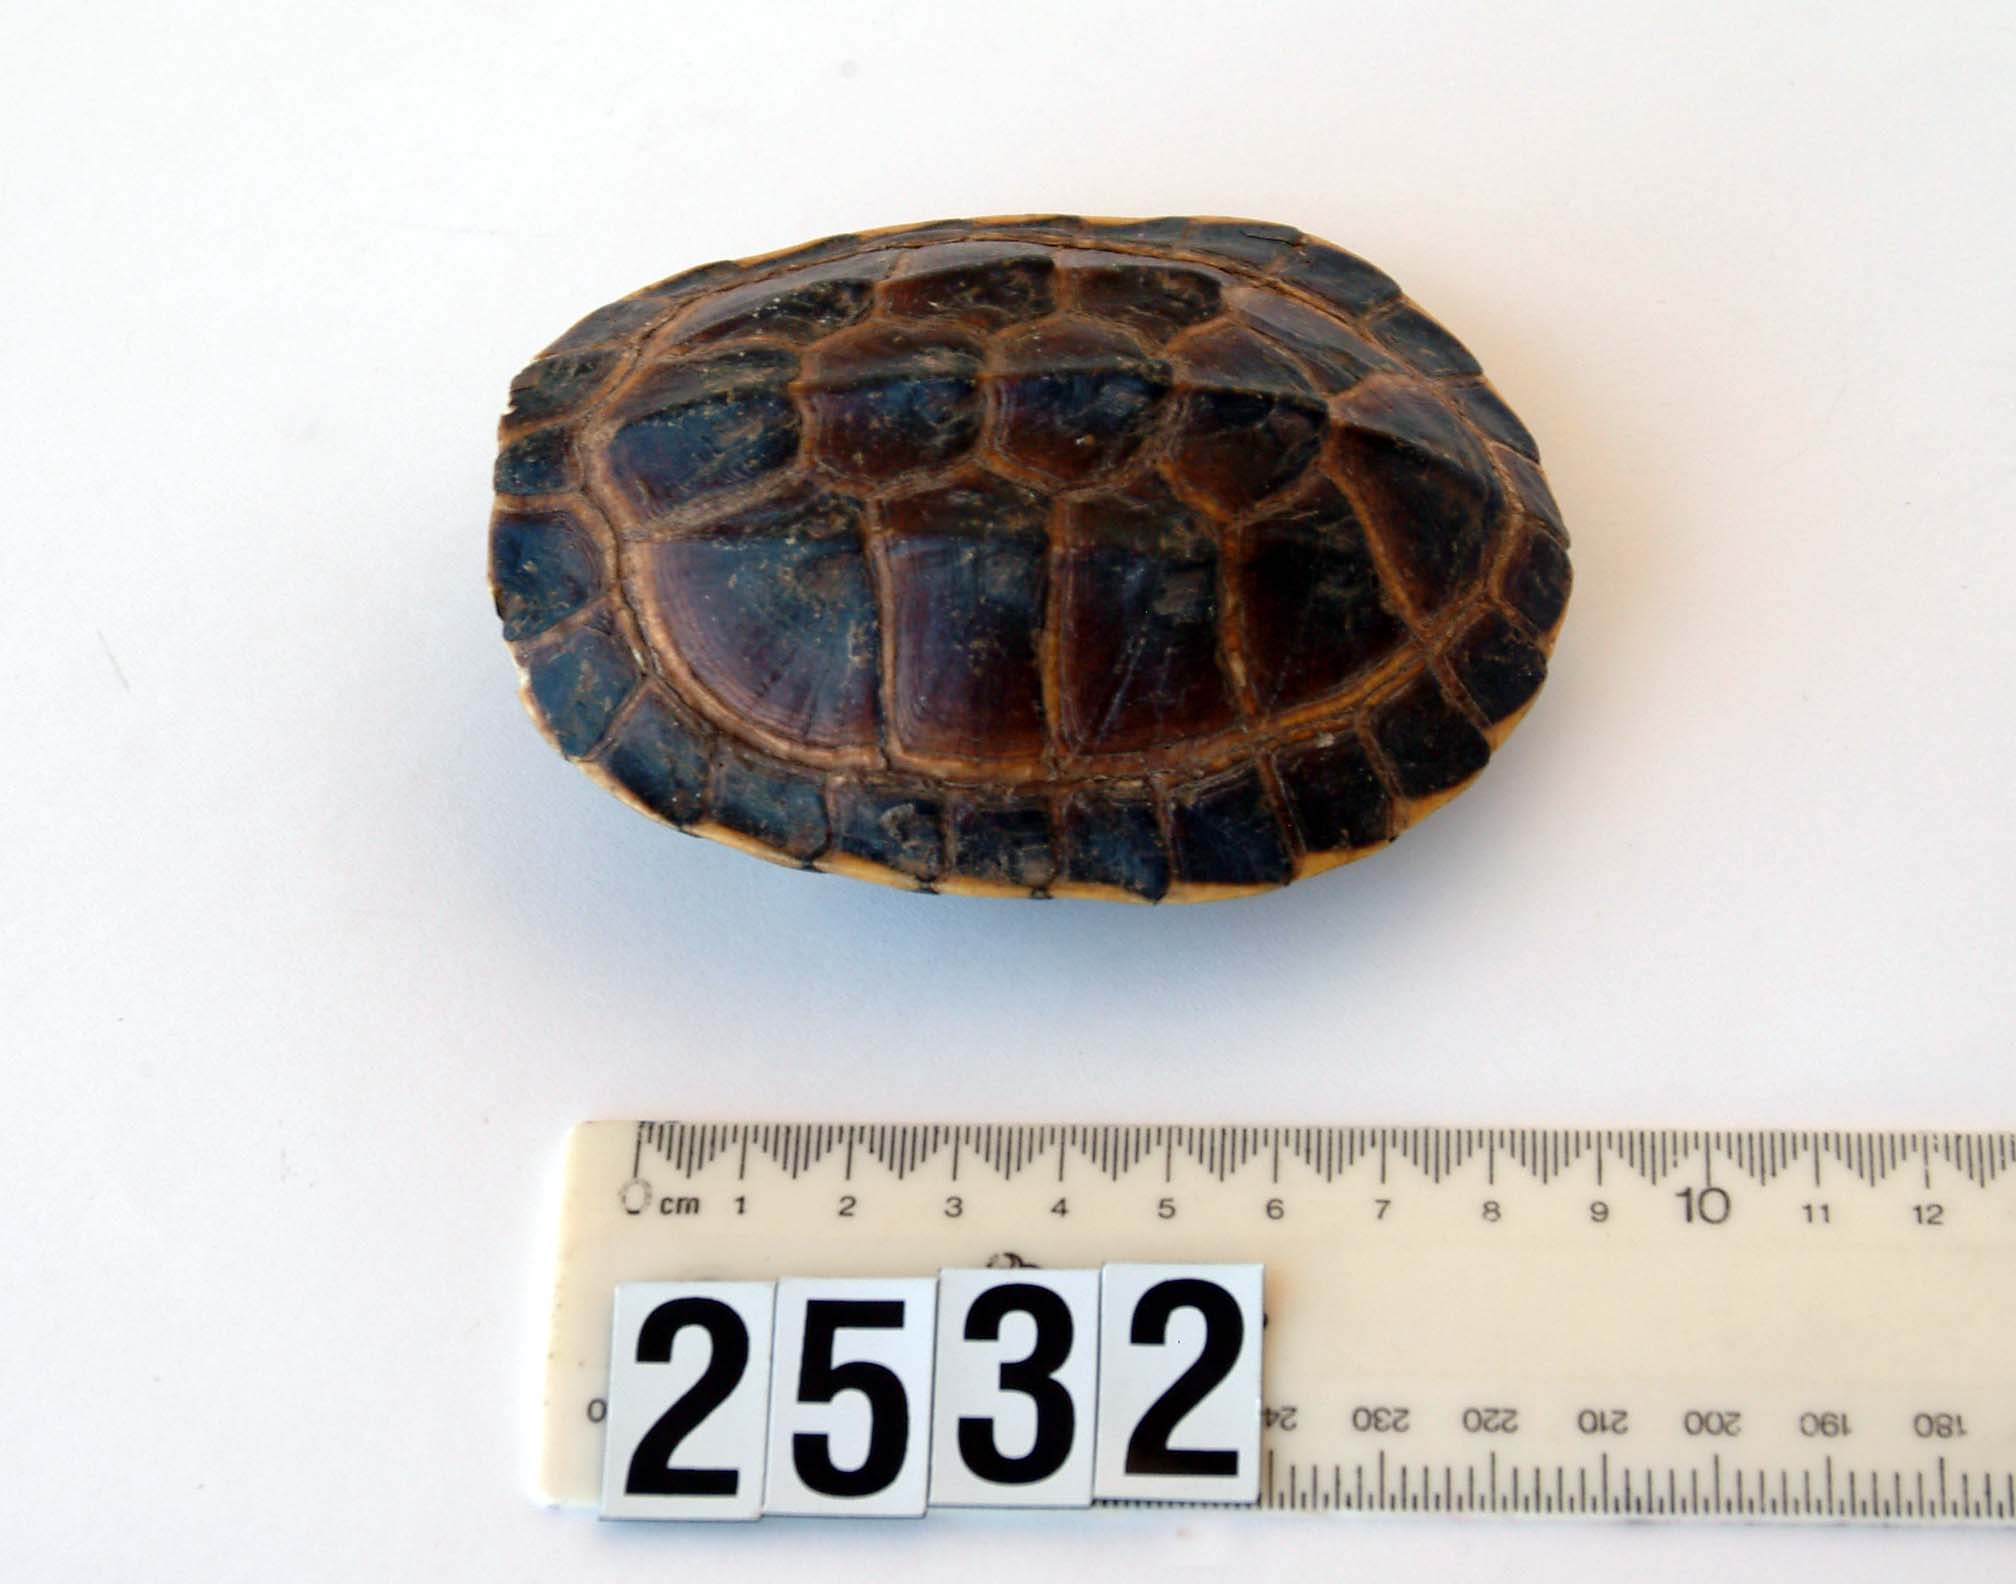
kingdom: Animalia
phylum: Chordata
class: Testudines
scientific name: Testudines
